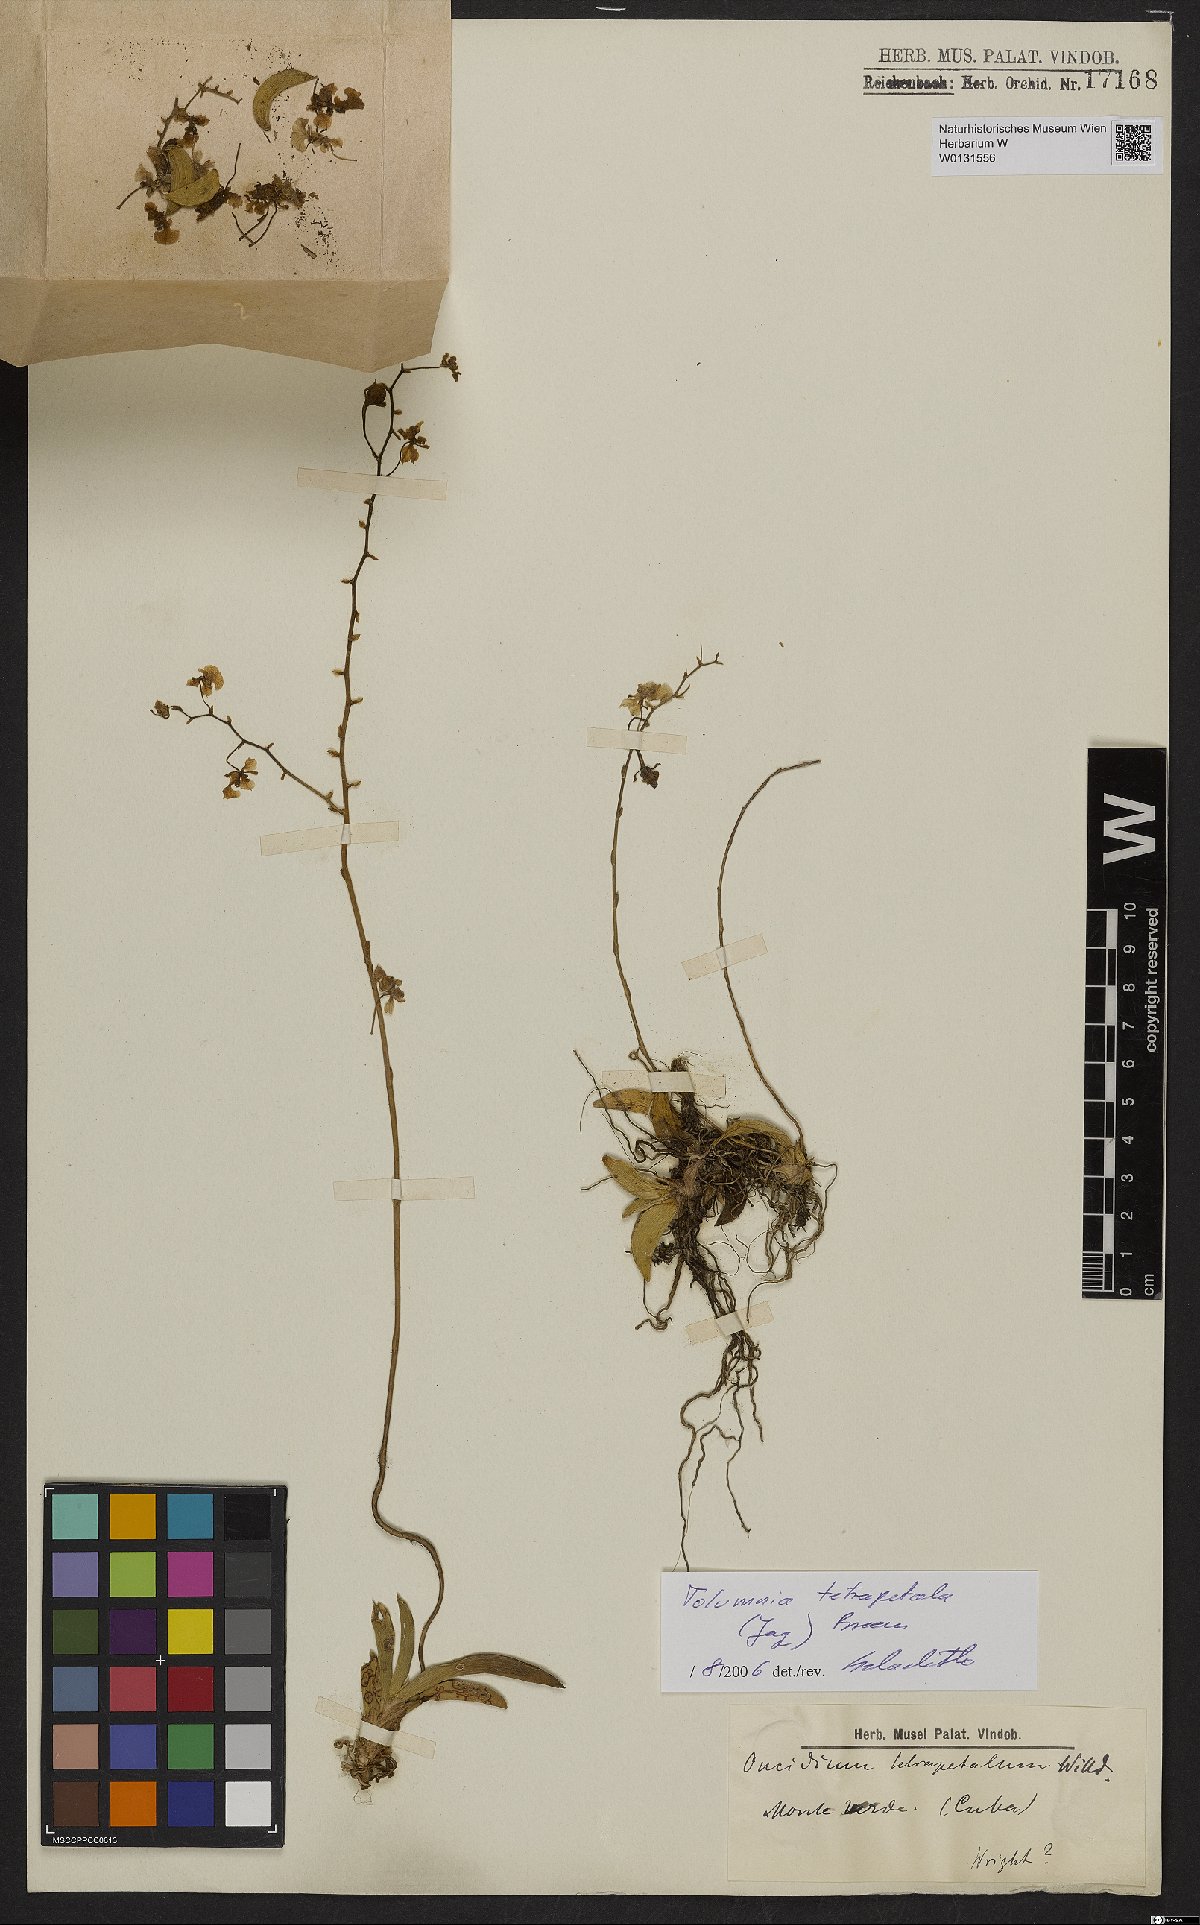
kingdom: Plantae
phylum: Tracheophyta
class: Liliopsida
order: Asparagales
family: Orchidaceae
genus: Tolumnia
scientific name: Tolumnia guttata
